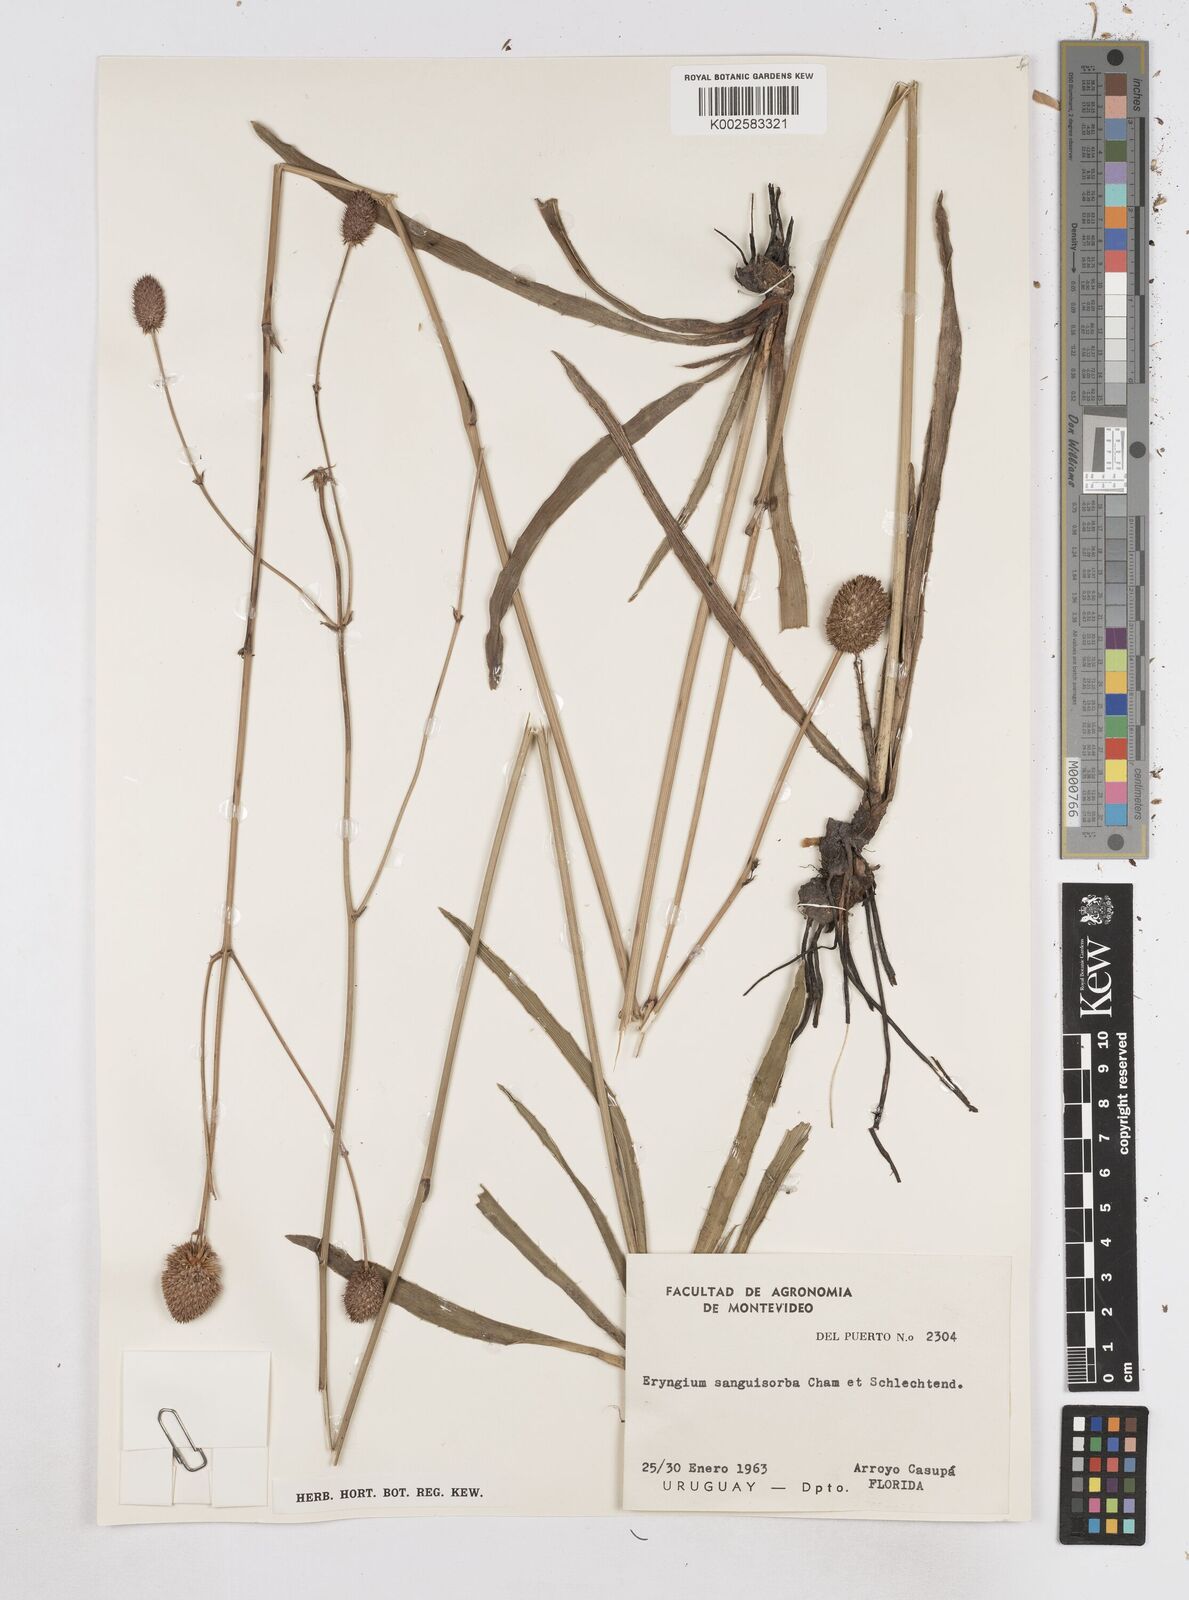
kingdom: Plantae
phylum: Tracheophyta
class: Magnoliopsida
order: Apiales
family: Apiaceae
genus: Eryngium
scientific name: Eryngium sanguisorba
